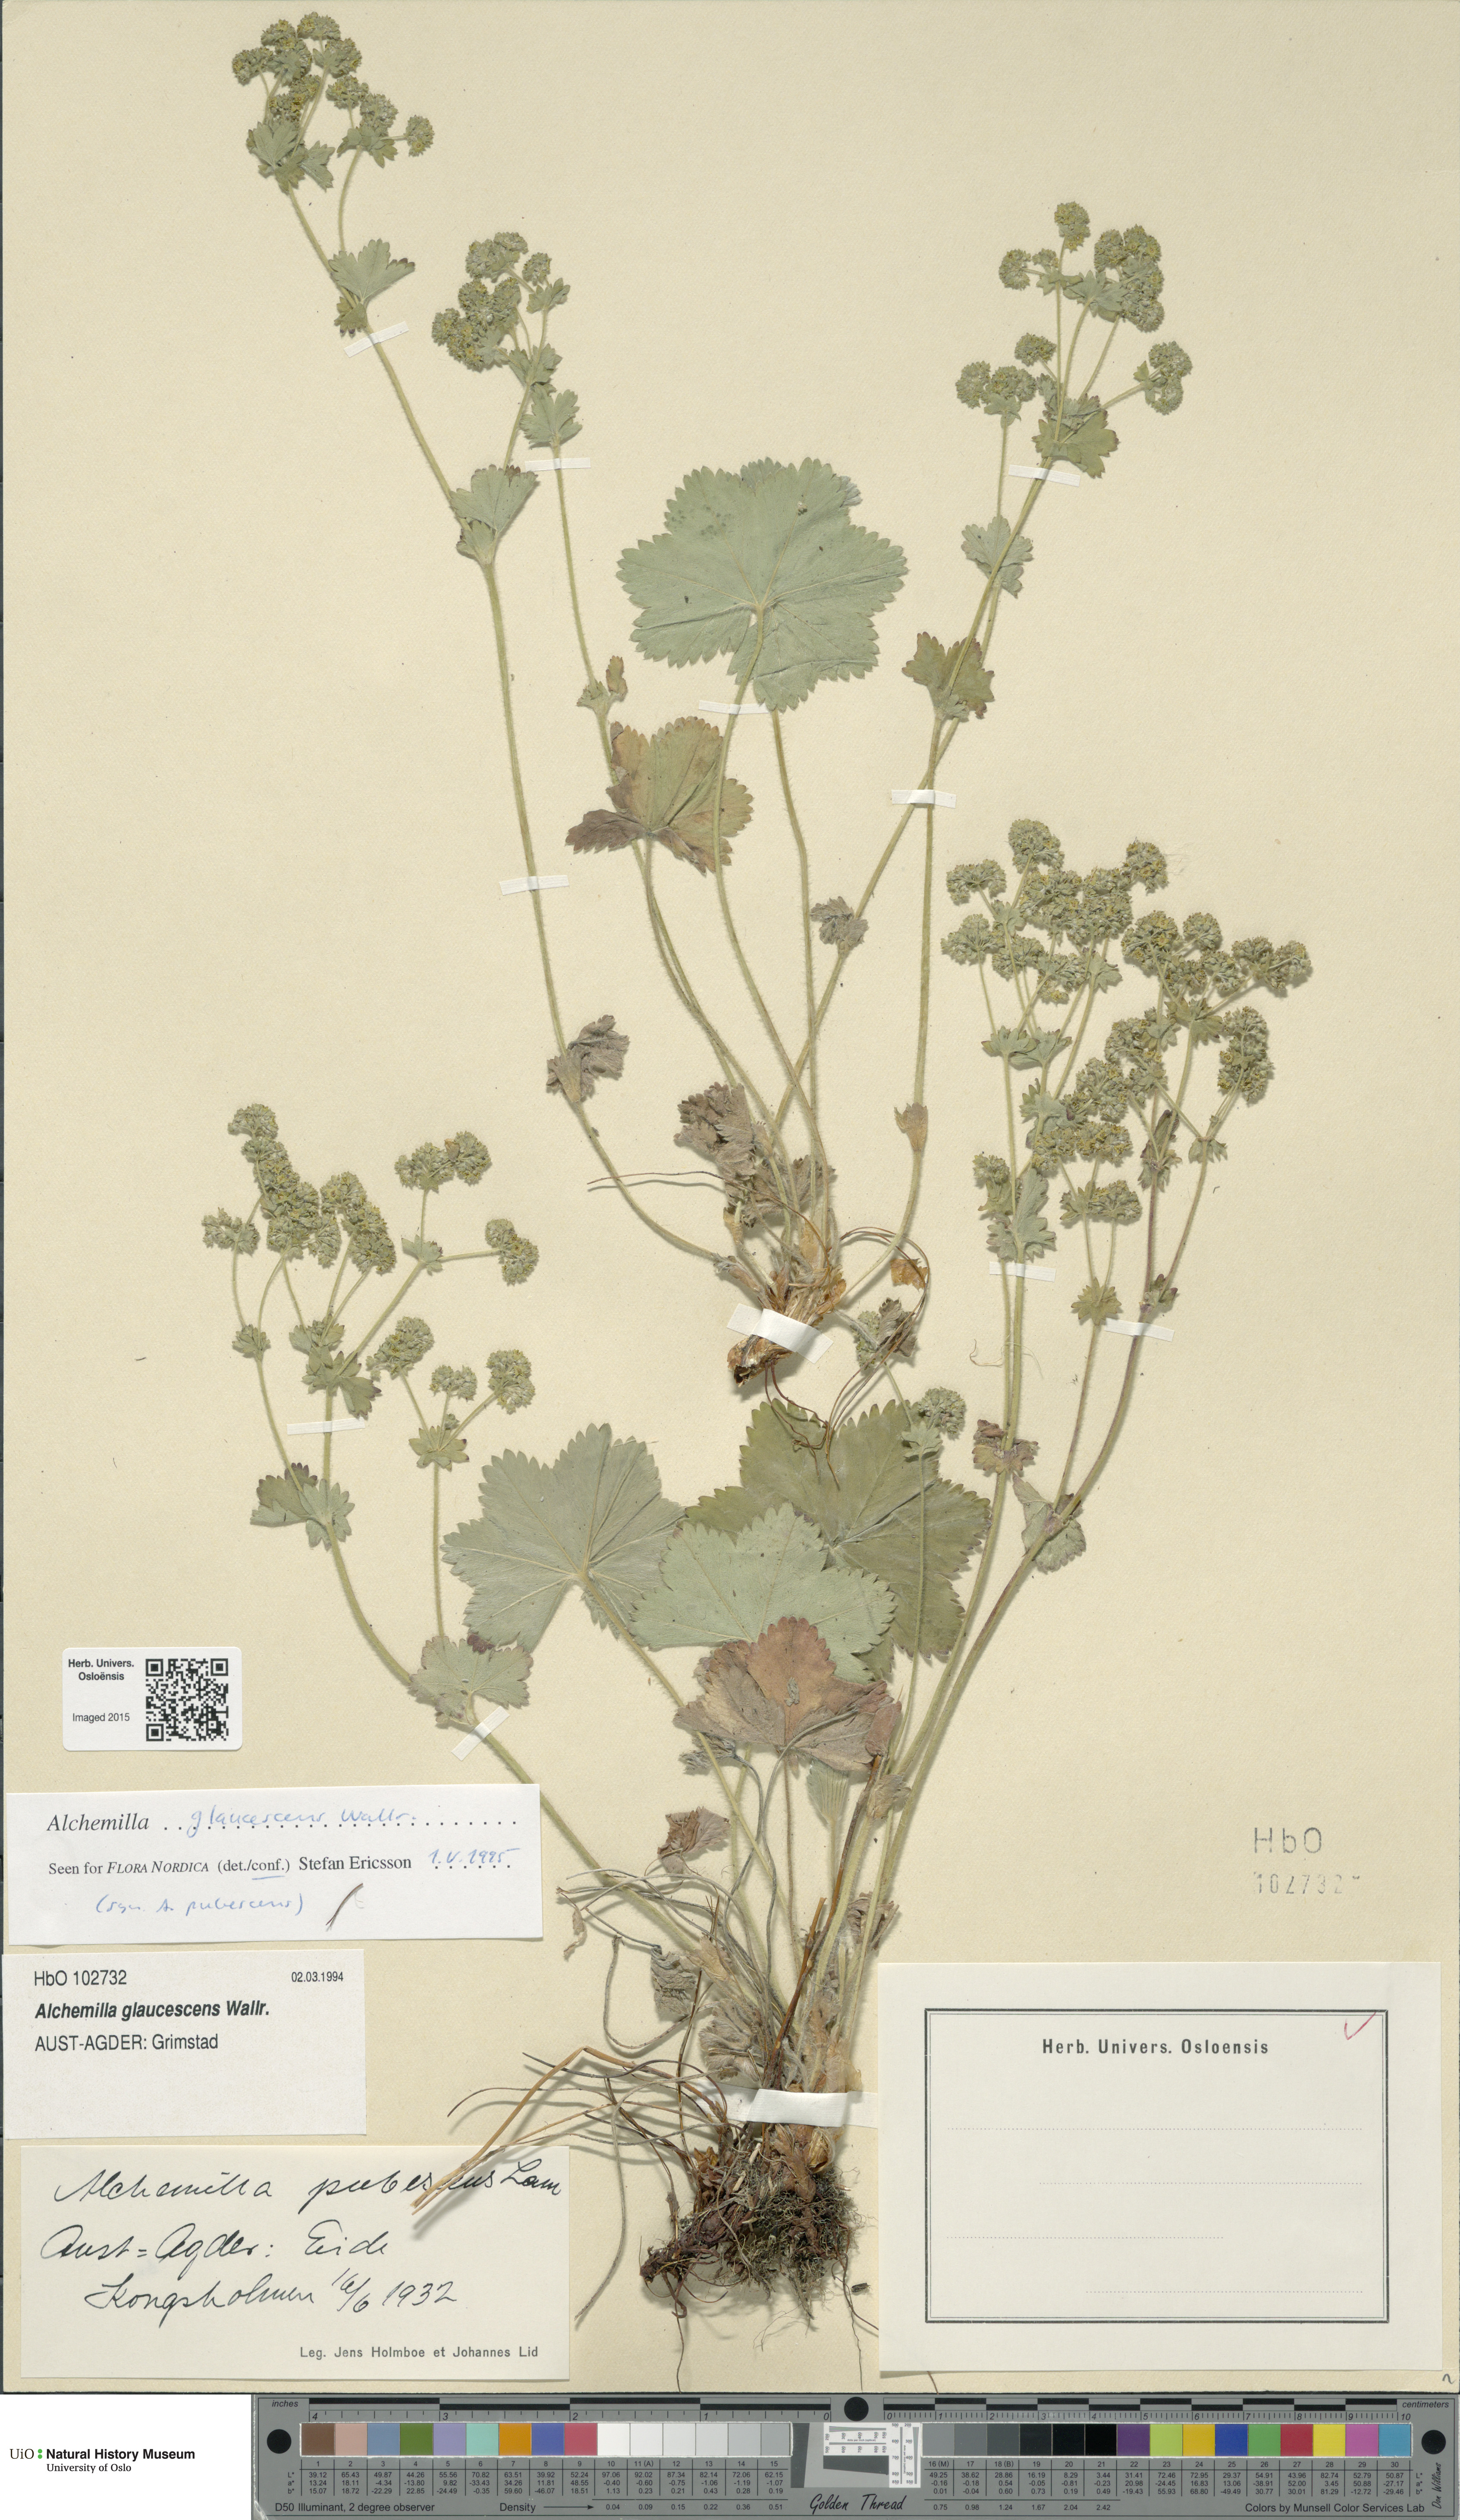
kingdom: Plantae
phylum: Tracheophyta
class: Magnoliopsida
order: Rosales
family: Rosaceae
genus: Alchemilla
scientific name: Alchemilla glaucescens
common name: Silky lady's mantle
